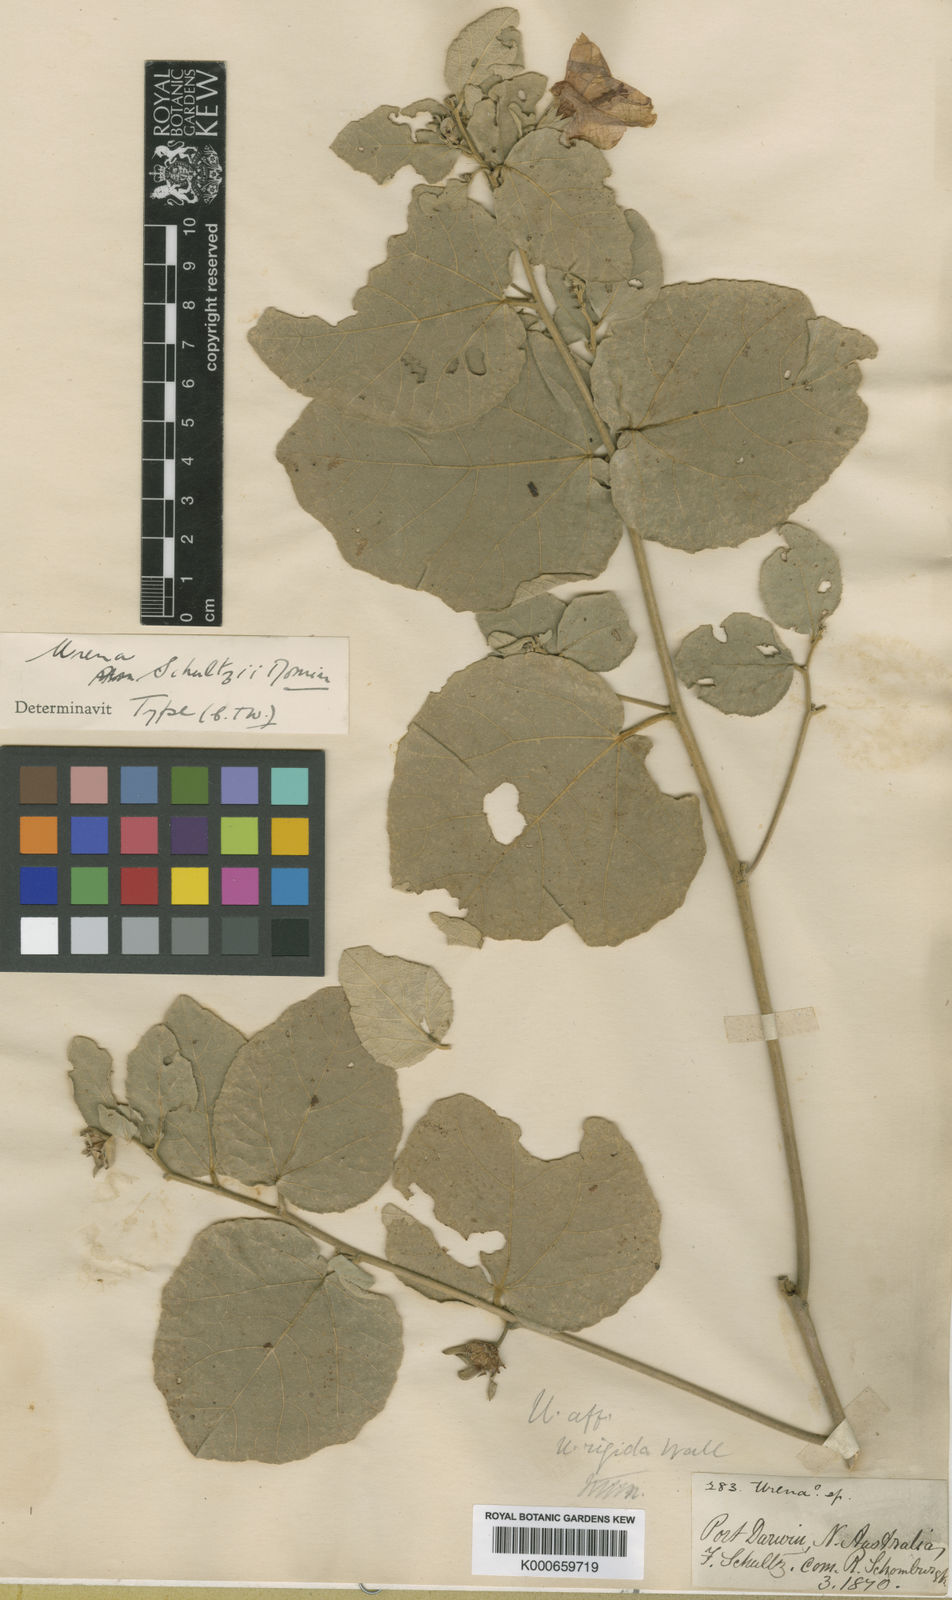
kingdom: Plantae
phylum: Tracheophyta
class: Magnoliopsida
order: Malvales
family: Malvaceae
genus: Urena
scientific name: Urena schultzii
